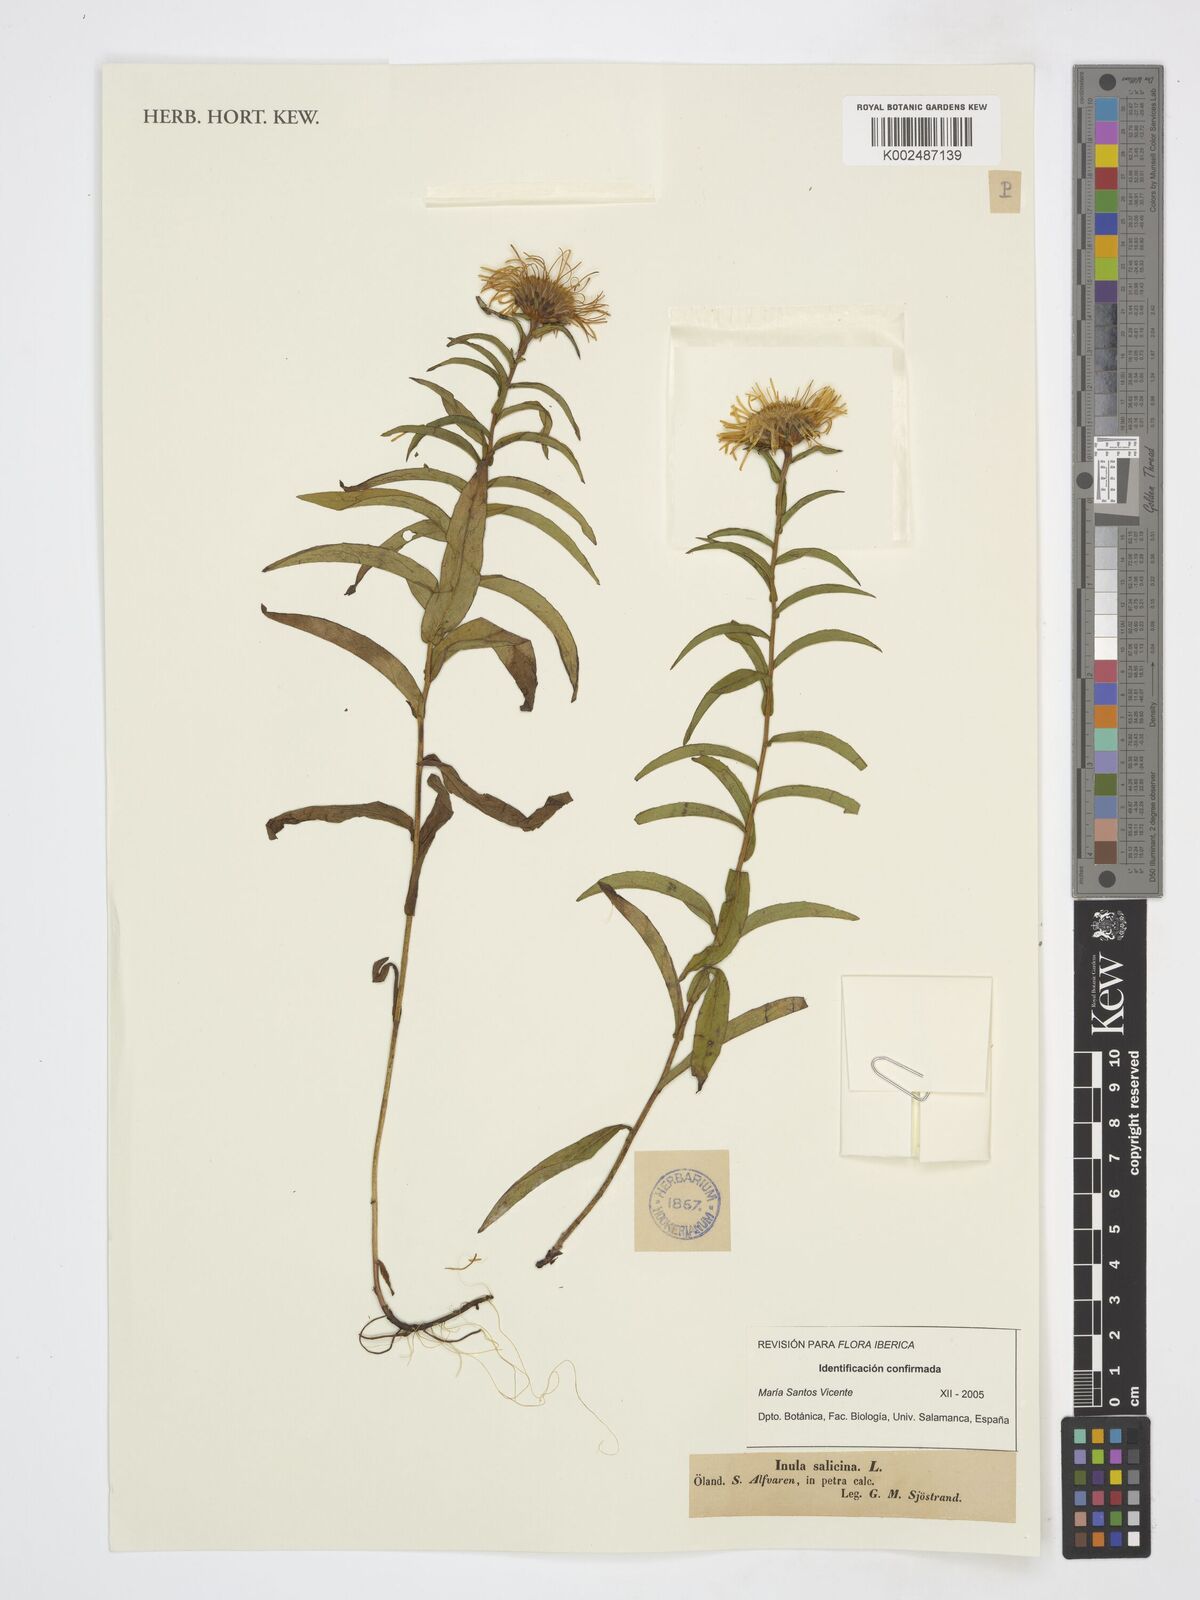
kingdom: Plantae
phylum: Tracheophyta
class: Magnoliopsida
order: Asterales
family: Asteraceae
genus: Pentanema
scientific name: Pentanema salicinum
